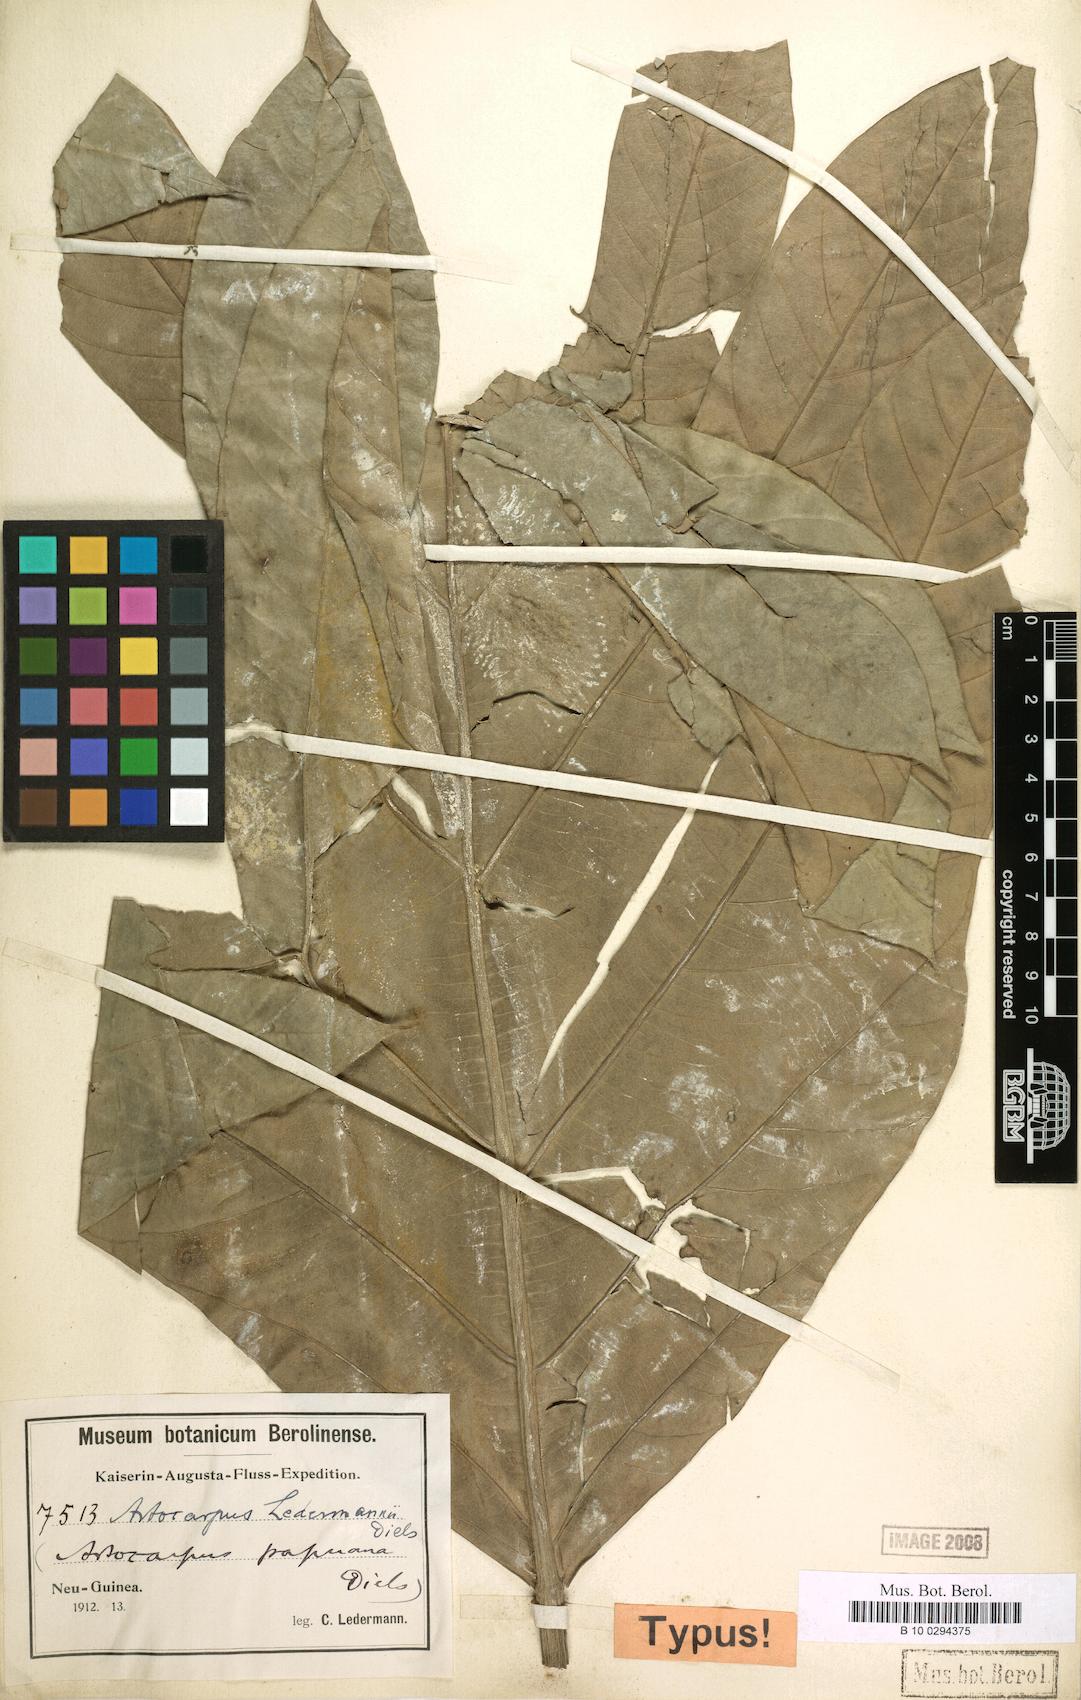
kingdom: Plantae
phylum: Tracheophyta
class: Magnoliopsida
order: Rosales
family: Moraceae
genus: Artocarpus
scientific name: Artocarpus altilis
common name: Breadfruit
